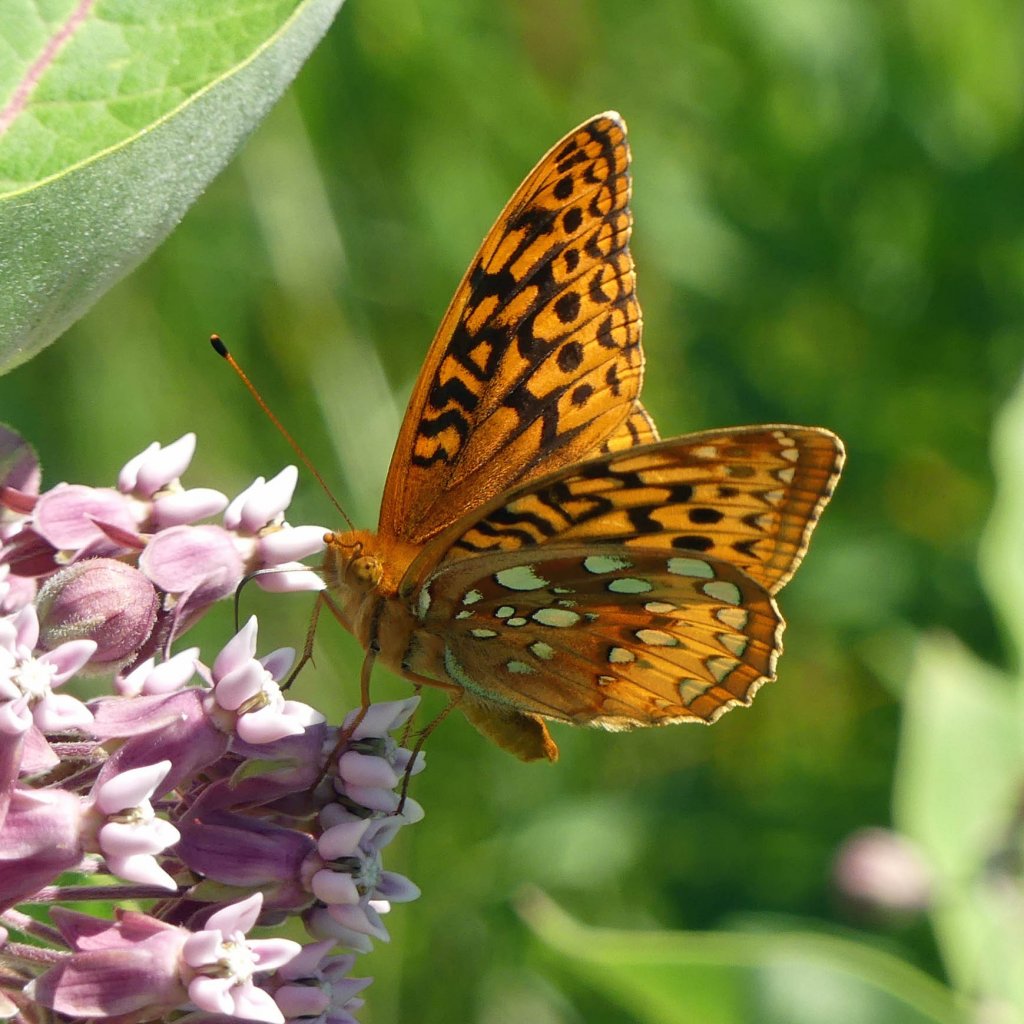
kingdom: Animalia
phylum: Arthropoda
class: Insecta
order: Lepidoptera
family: Nymphalidae
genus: Speyeria
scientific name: Speyeria cybele
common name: Great Spangled Fritillary
